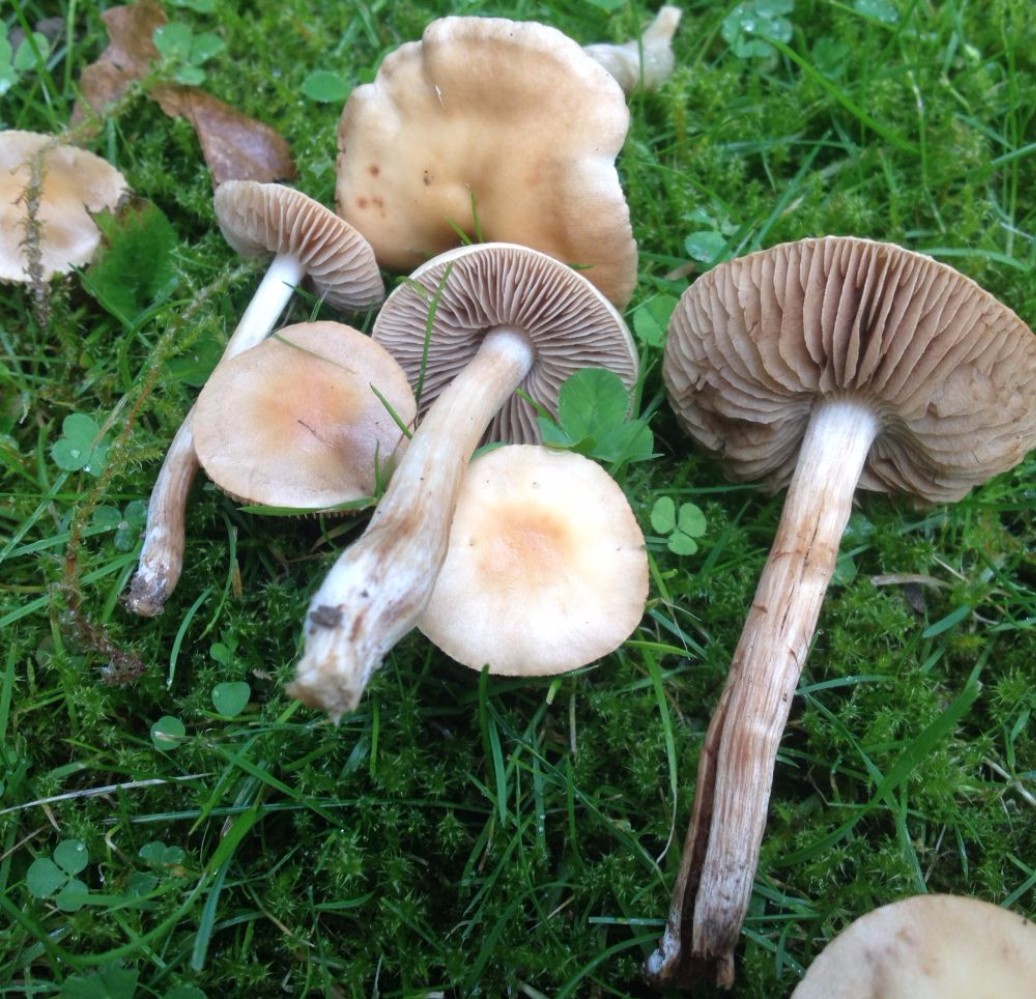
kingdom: Fungi
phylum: Basidiomycota
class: Agaricomycetes
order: Agaricales
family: Hymenogastraceae
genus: Hebeloma
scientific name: Hebeloma
